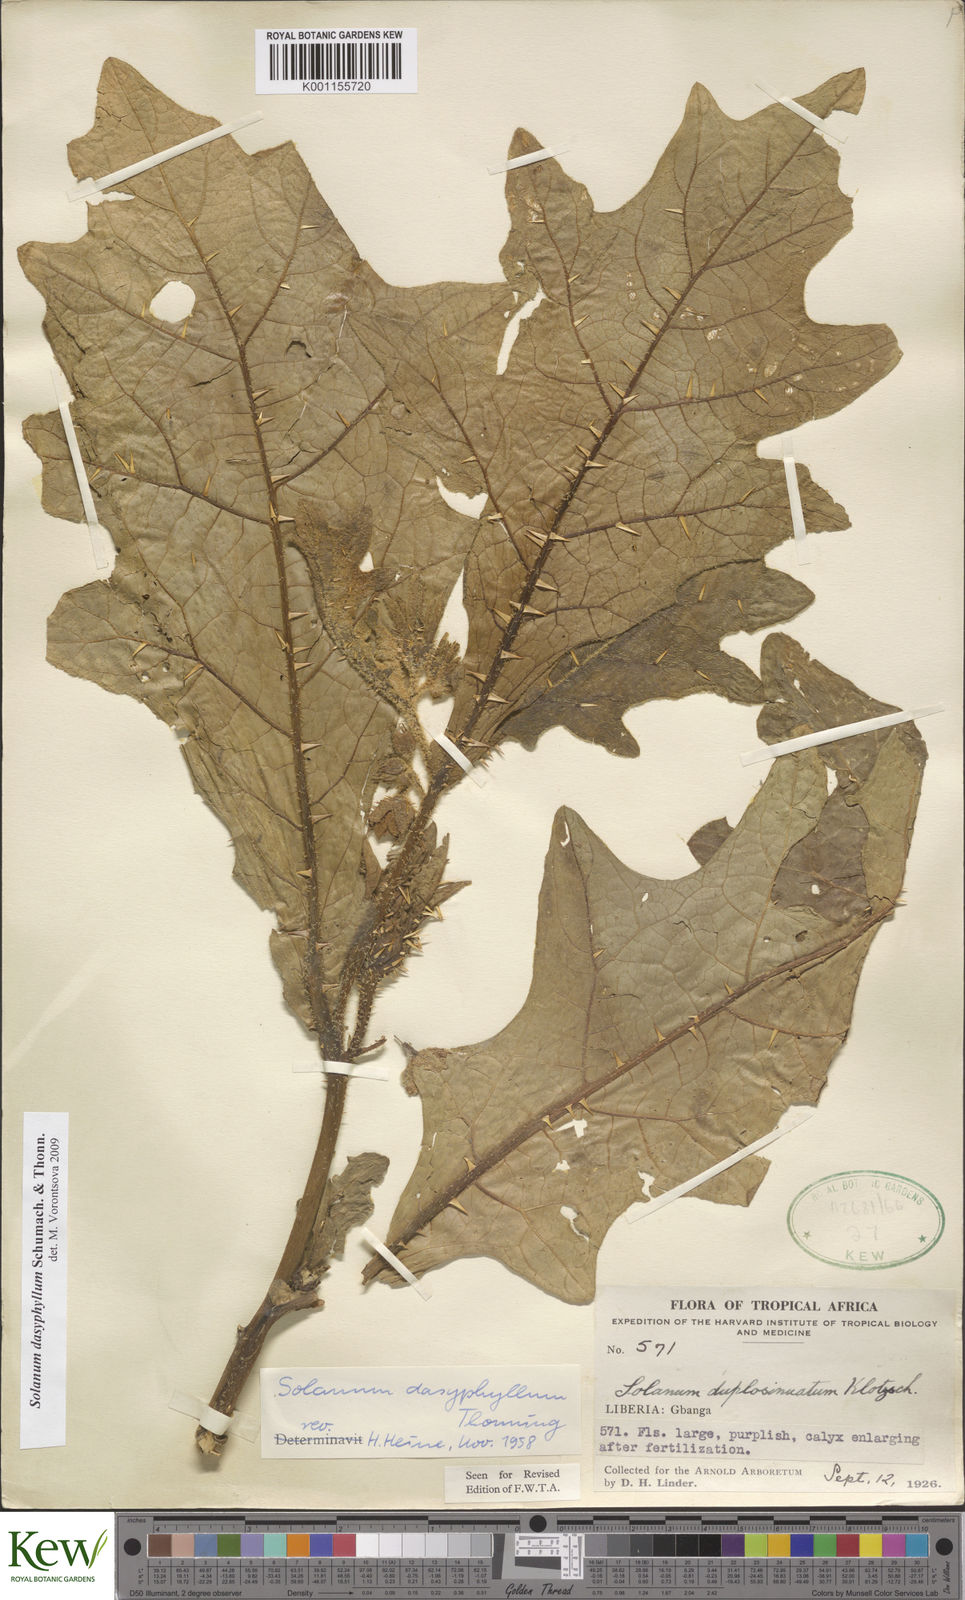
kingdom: Plantae
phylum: Tracheophyta
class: Magnoliopsida
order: Solanales
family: Solanaceae
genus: Solanum
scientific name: Solanum dasyphyllum
